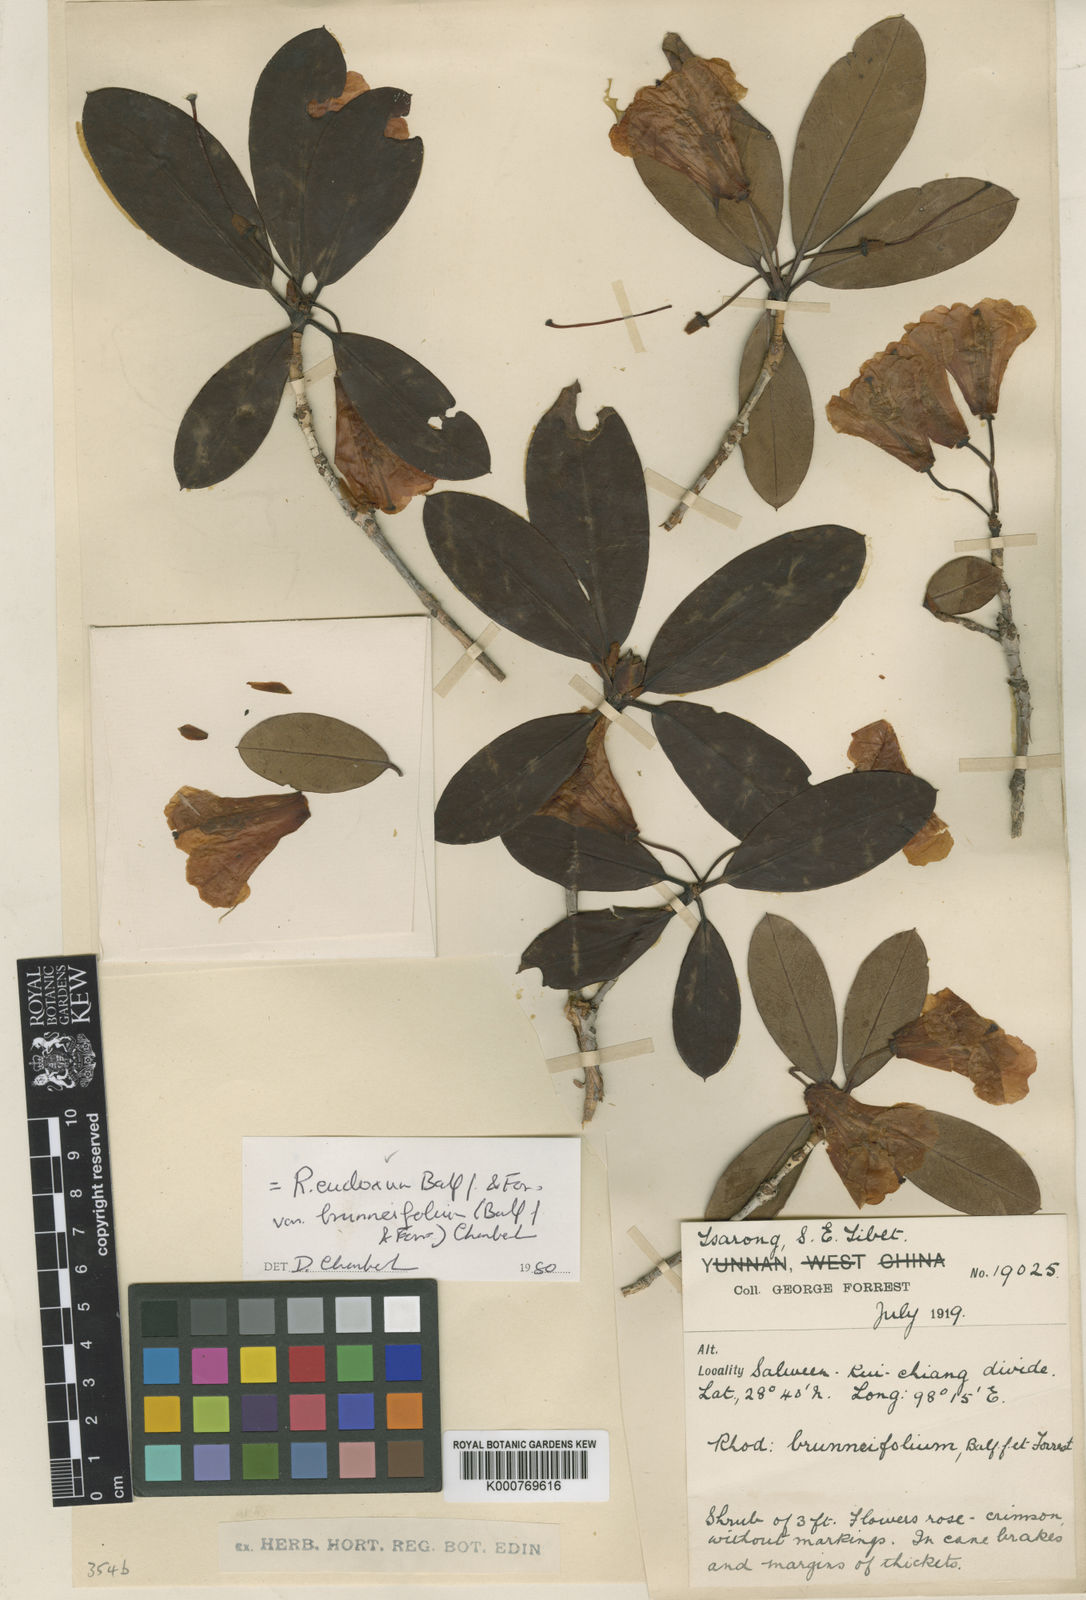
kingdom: Plantae
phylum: Tracheophyta
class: Magnoliopsida
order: Ericales
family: Ericaceae
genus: Rhododendron
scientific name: Rhododendron eudoxum
